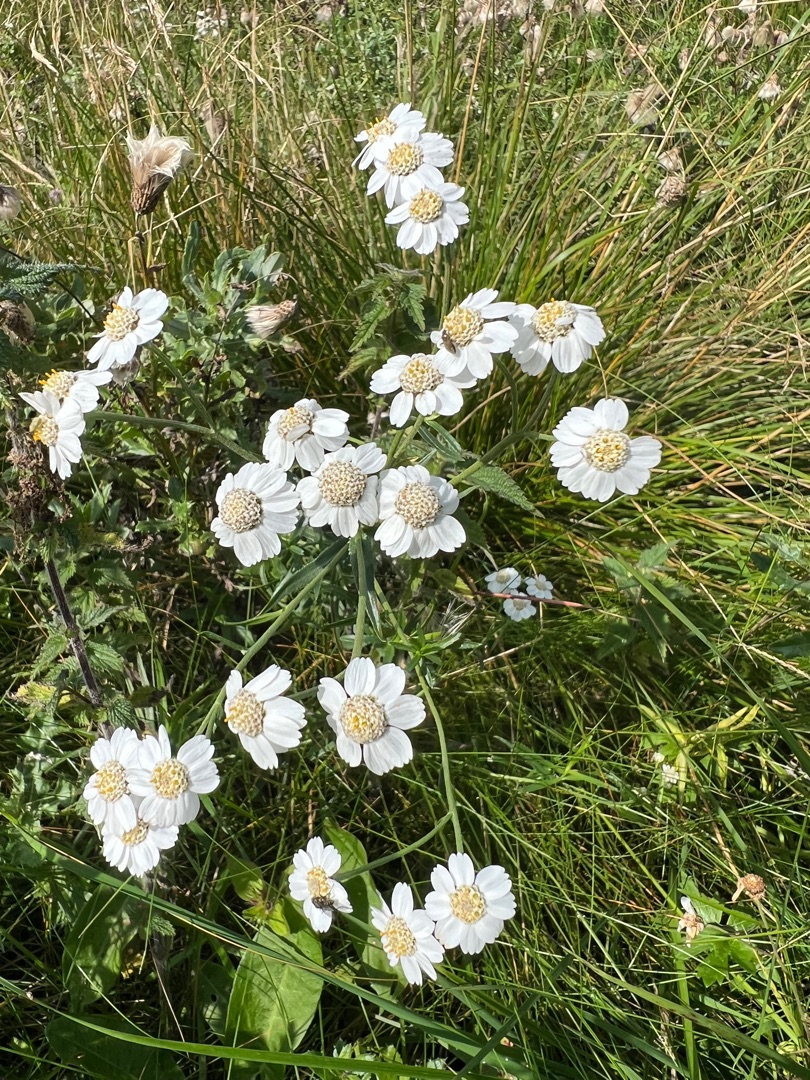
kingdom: Plantae
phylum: Tracheophyta
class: Magnoliopsida
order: Asterales
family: Asteraceae
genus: Achillea
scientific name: Achillea ptarmica
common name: Nyse-røllike
